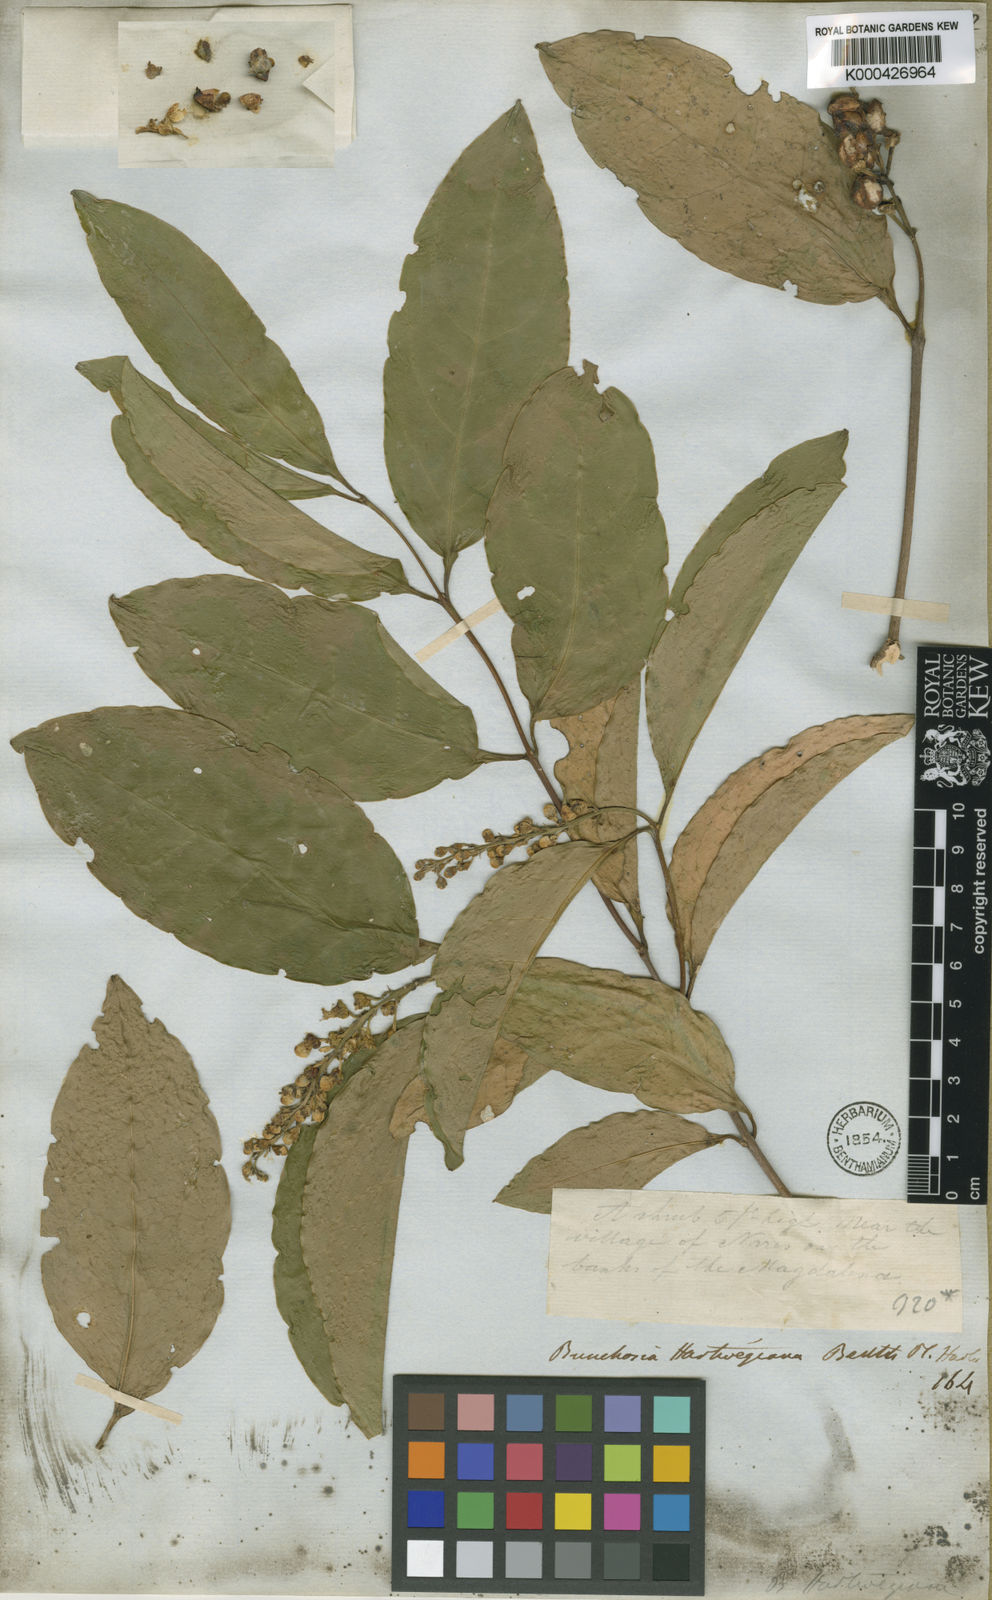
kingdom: Plantae
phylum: Tracheophyta
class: Magnoliopsida
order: Malpighiales
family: Malpighiaceae
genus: Bunchosia
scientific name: Bunchosia hartwegiana
